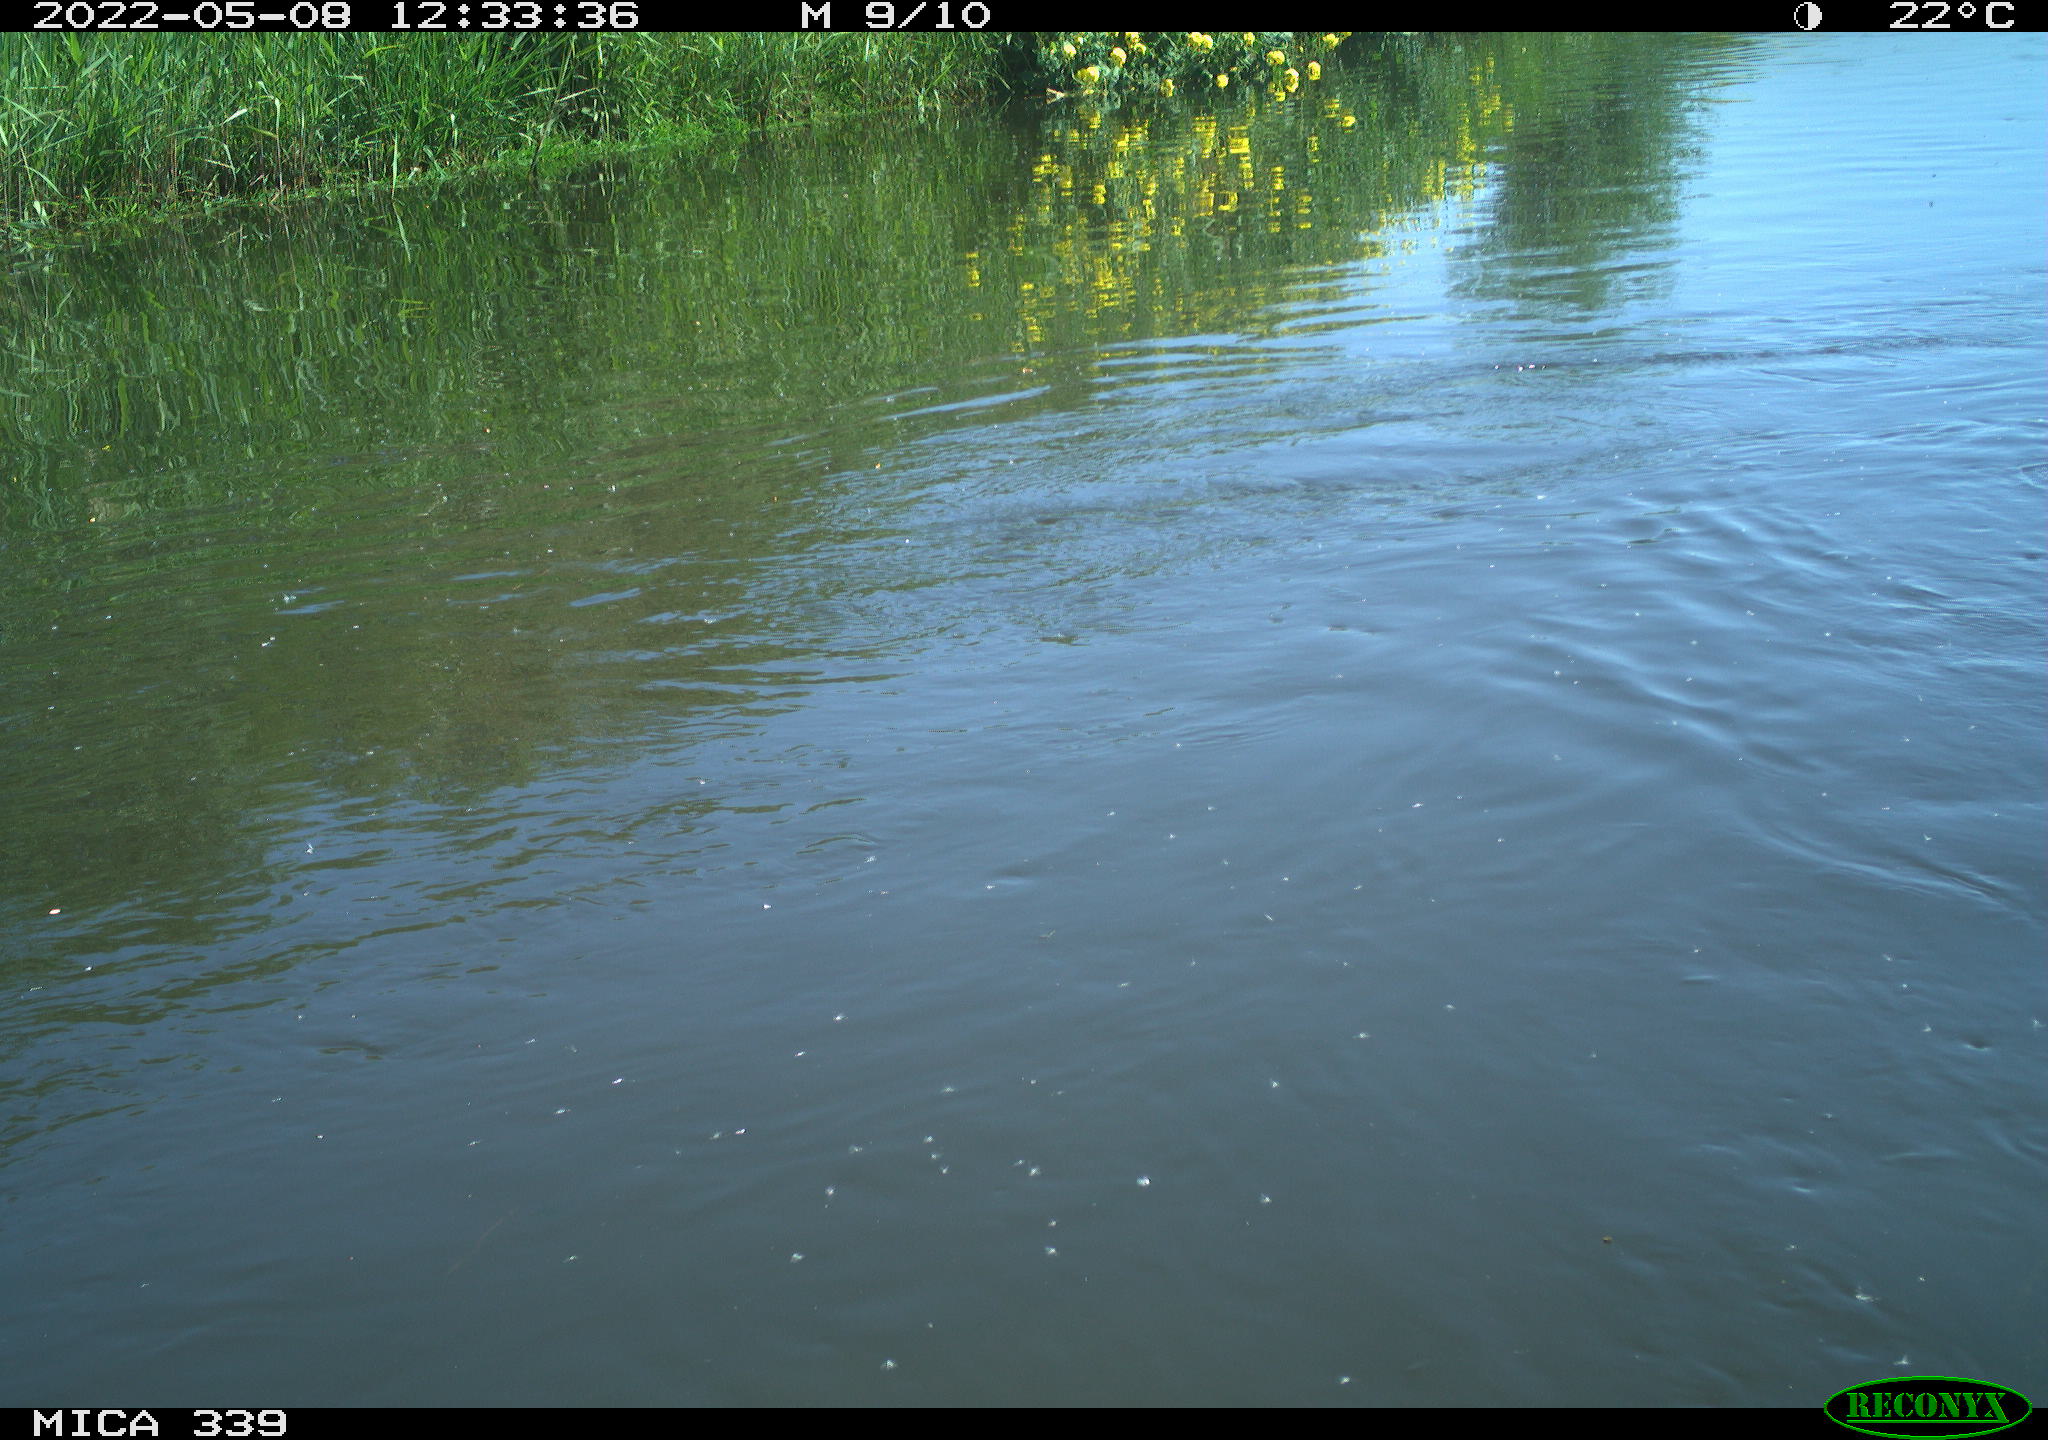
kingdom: Animalia
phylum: Chordata
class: Aves
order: Anseriformes
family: Anatidae
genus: Anas
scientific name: Anas platyrhynchos
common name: Mallard
